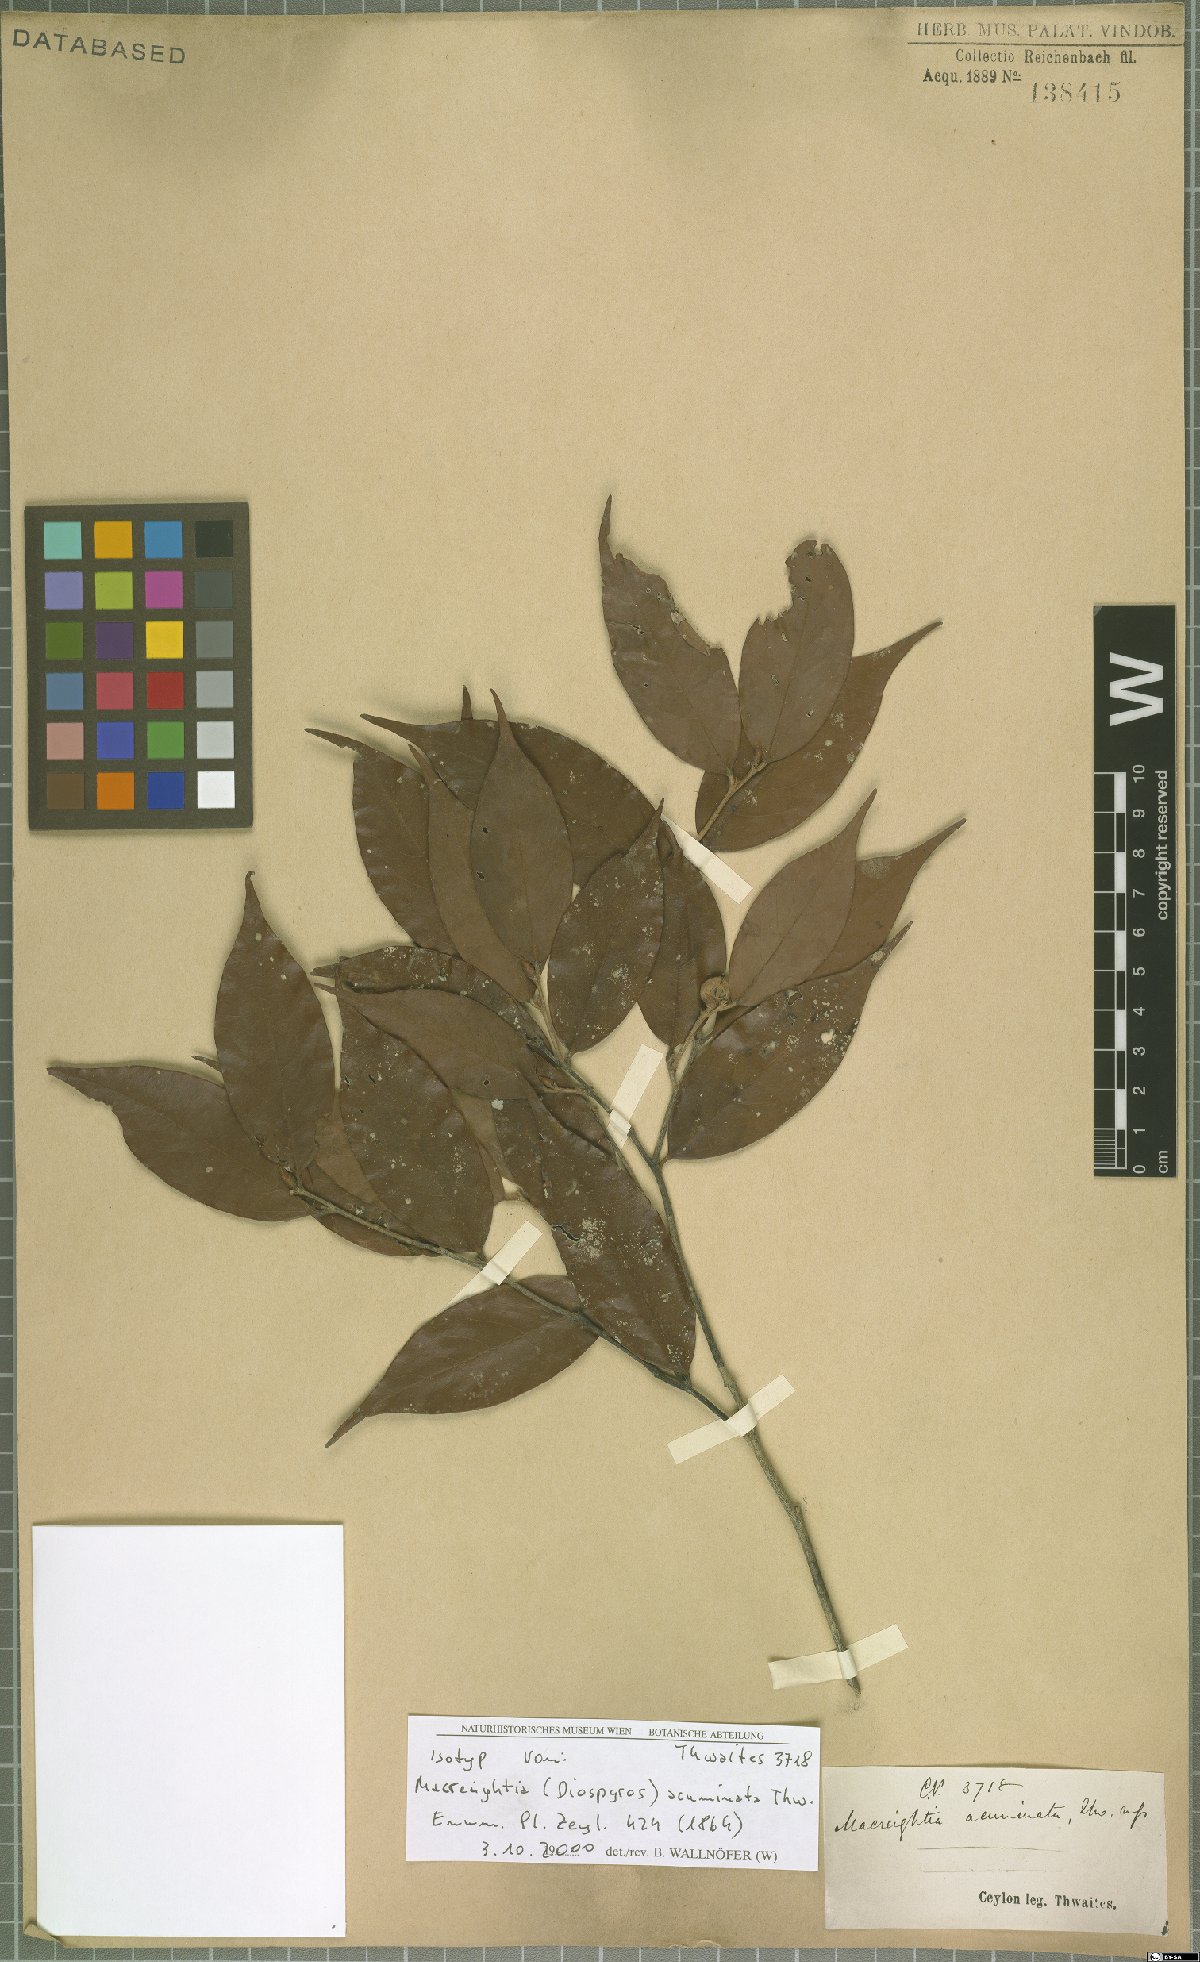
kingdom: Plantae
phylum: Tracheophyta
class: Magnoliopsida
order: Ericales
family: Ebenaceae
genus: Diospyros
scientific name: Diospyros acuminata
